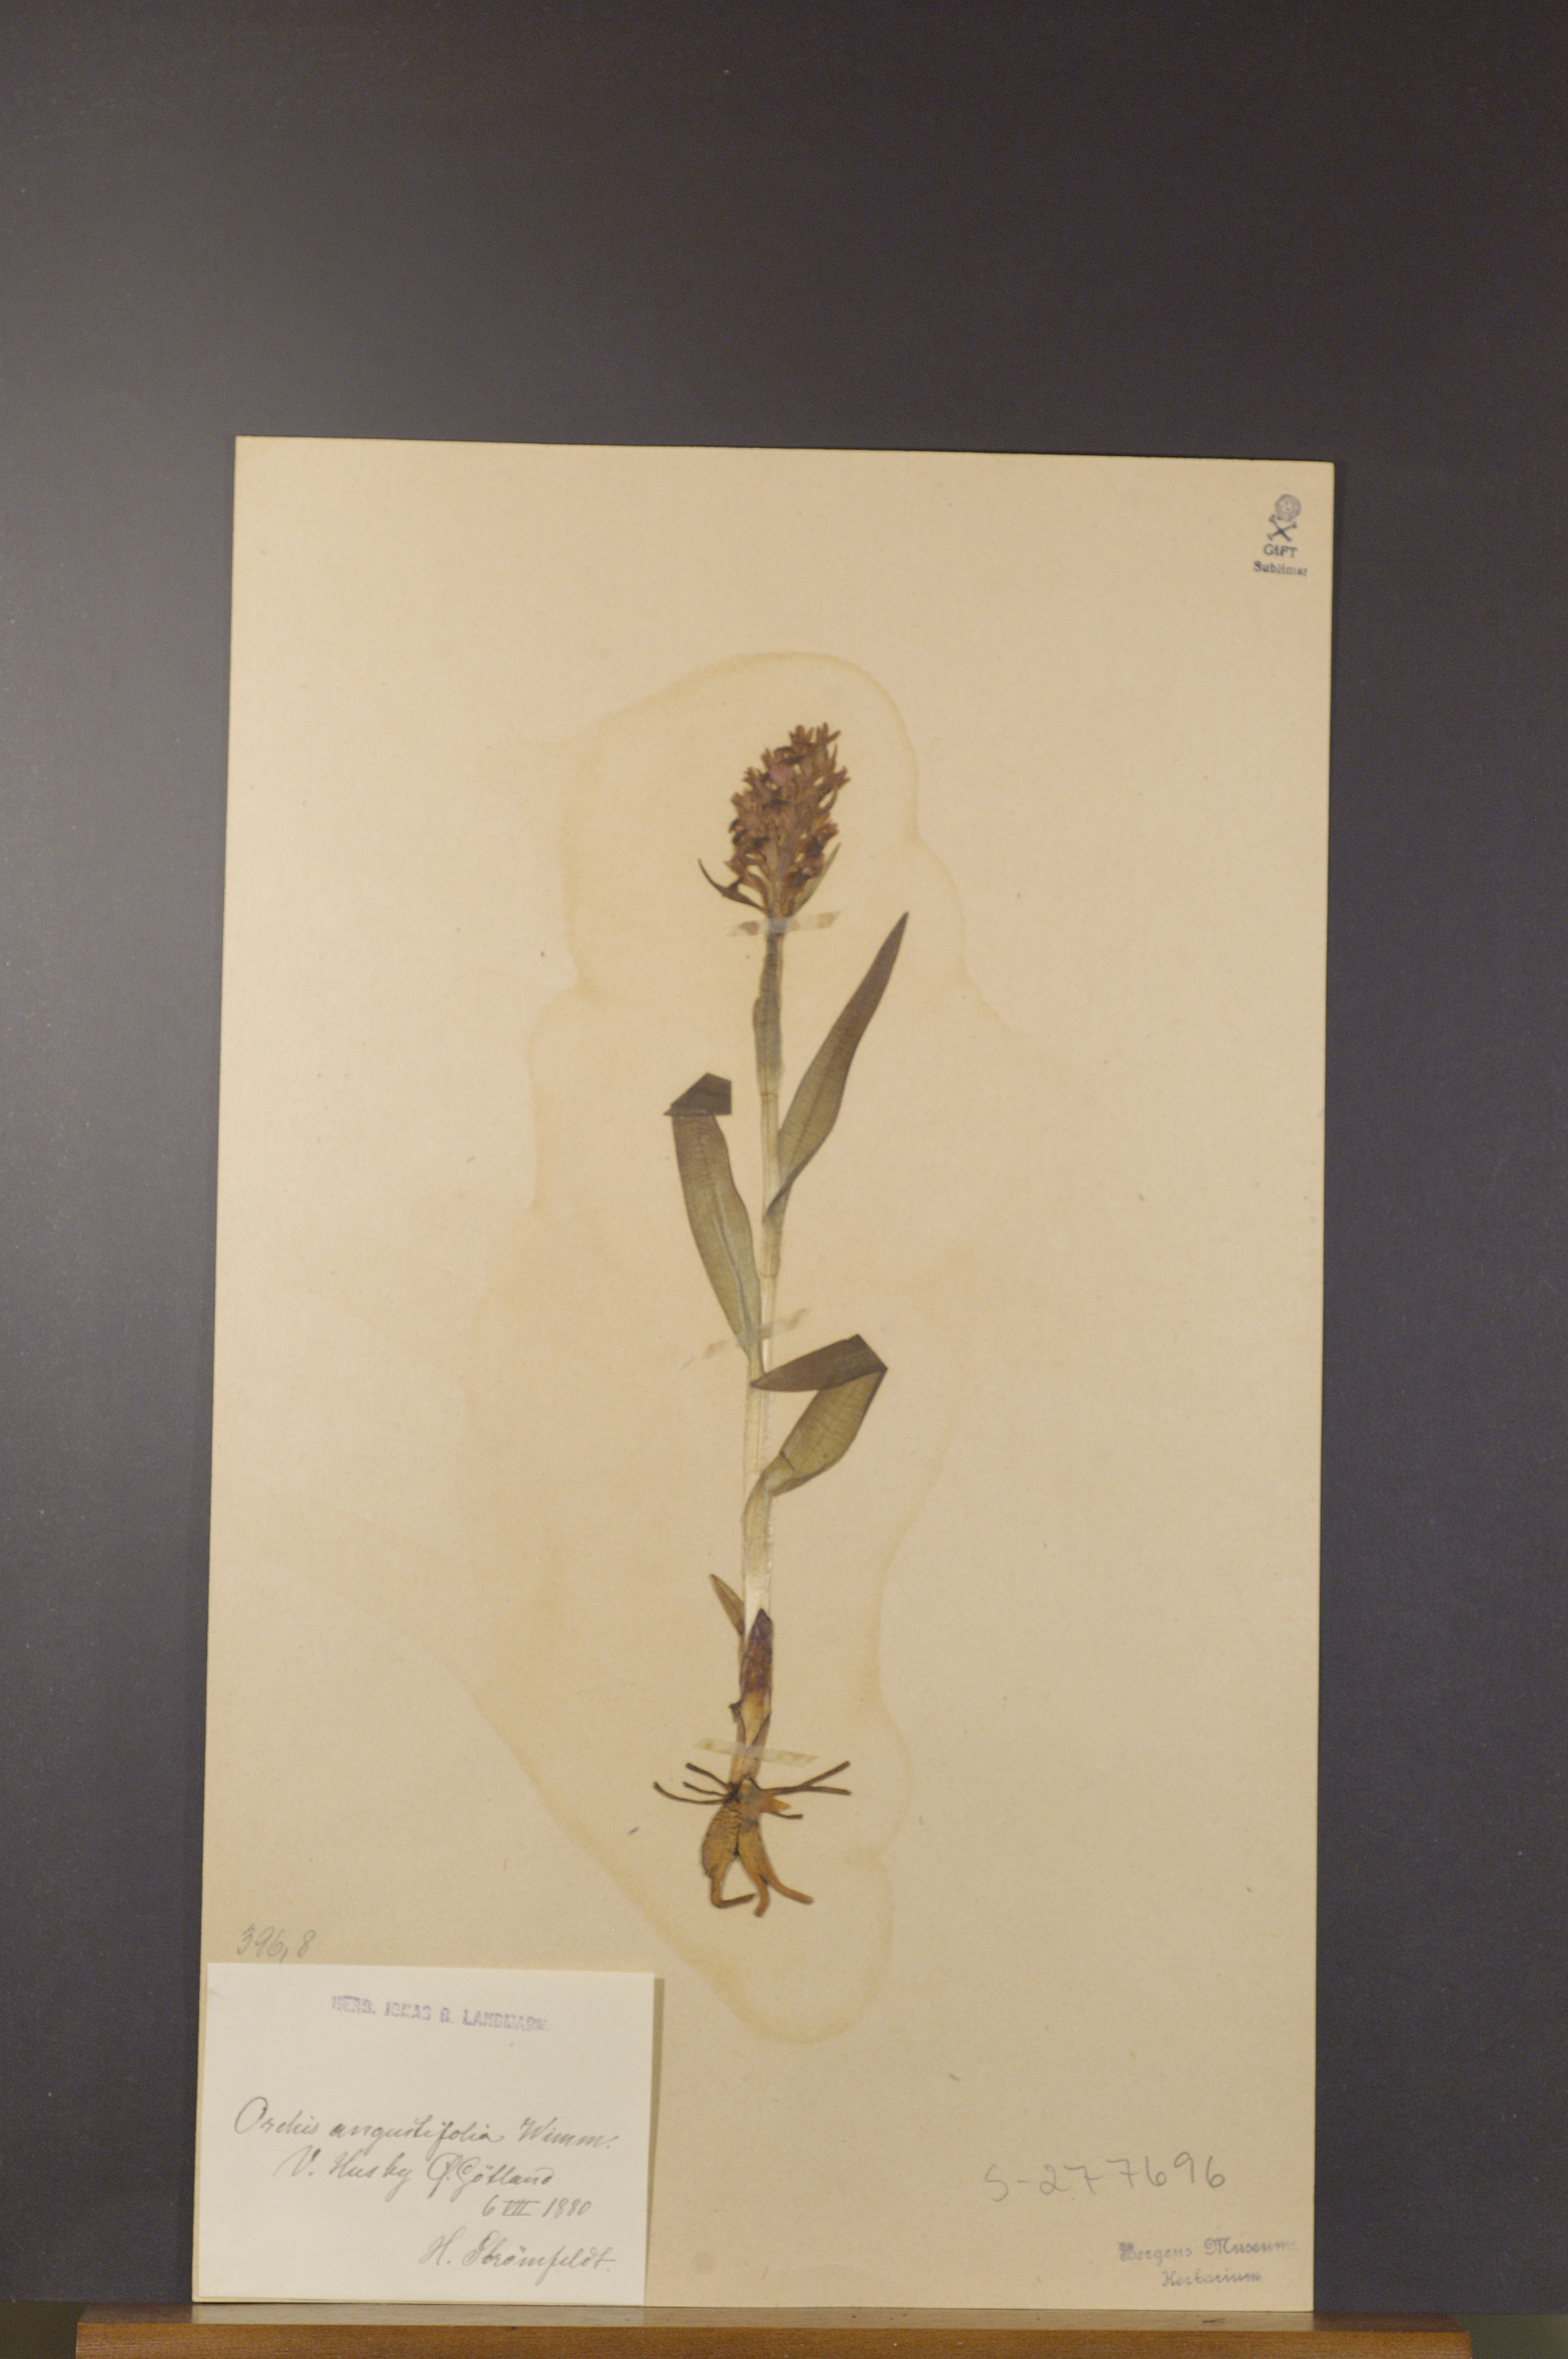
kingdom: Plantae
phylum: Tracheophyta
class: Liliopsida
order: Asparagales
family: Orchidaceae
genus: Dactylorhiza
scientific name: Dactylorhiza incarnata
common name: Early marsh-orchid
